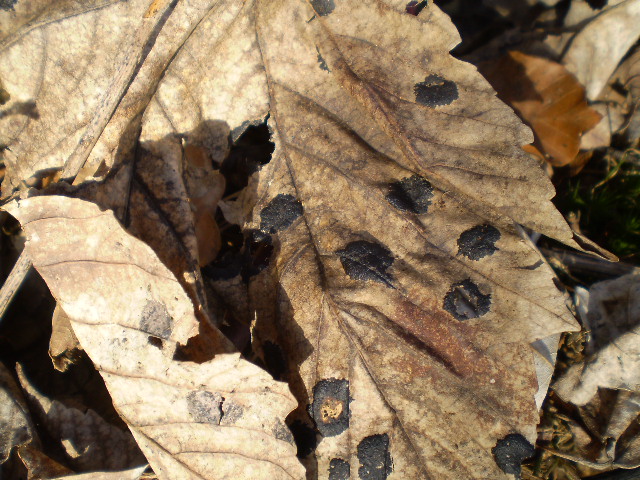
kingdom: Fungi
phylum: Ascomycota
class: Leotiomycetes
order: Rhytismatales
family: Rhytismataceae
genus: Rhytisma
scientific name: Rhytisma acerinum
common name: ahorn-rynkeplet
